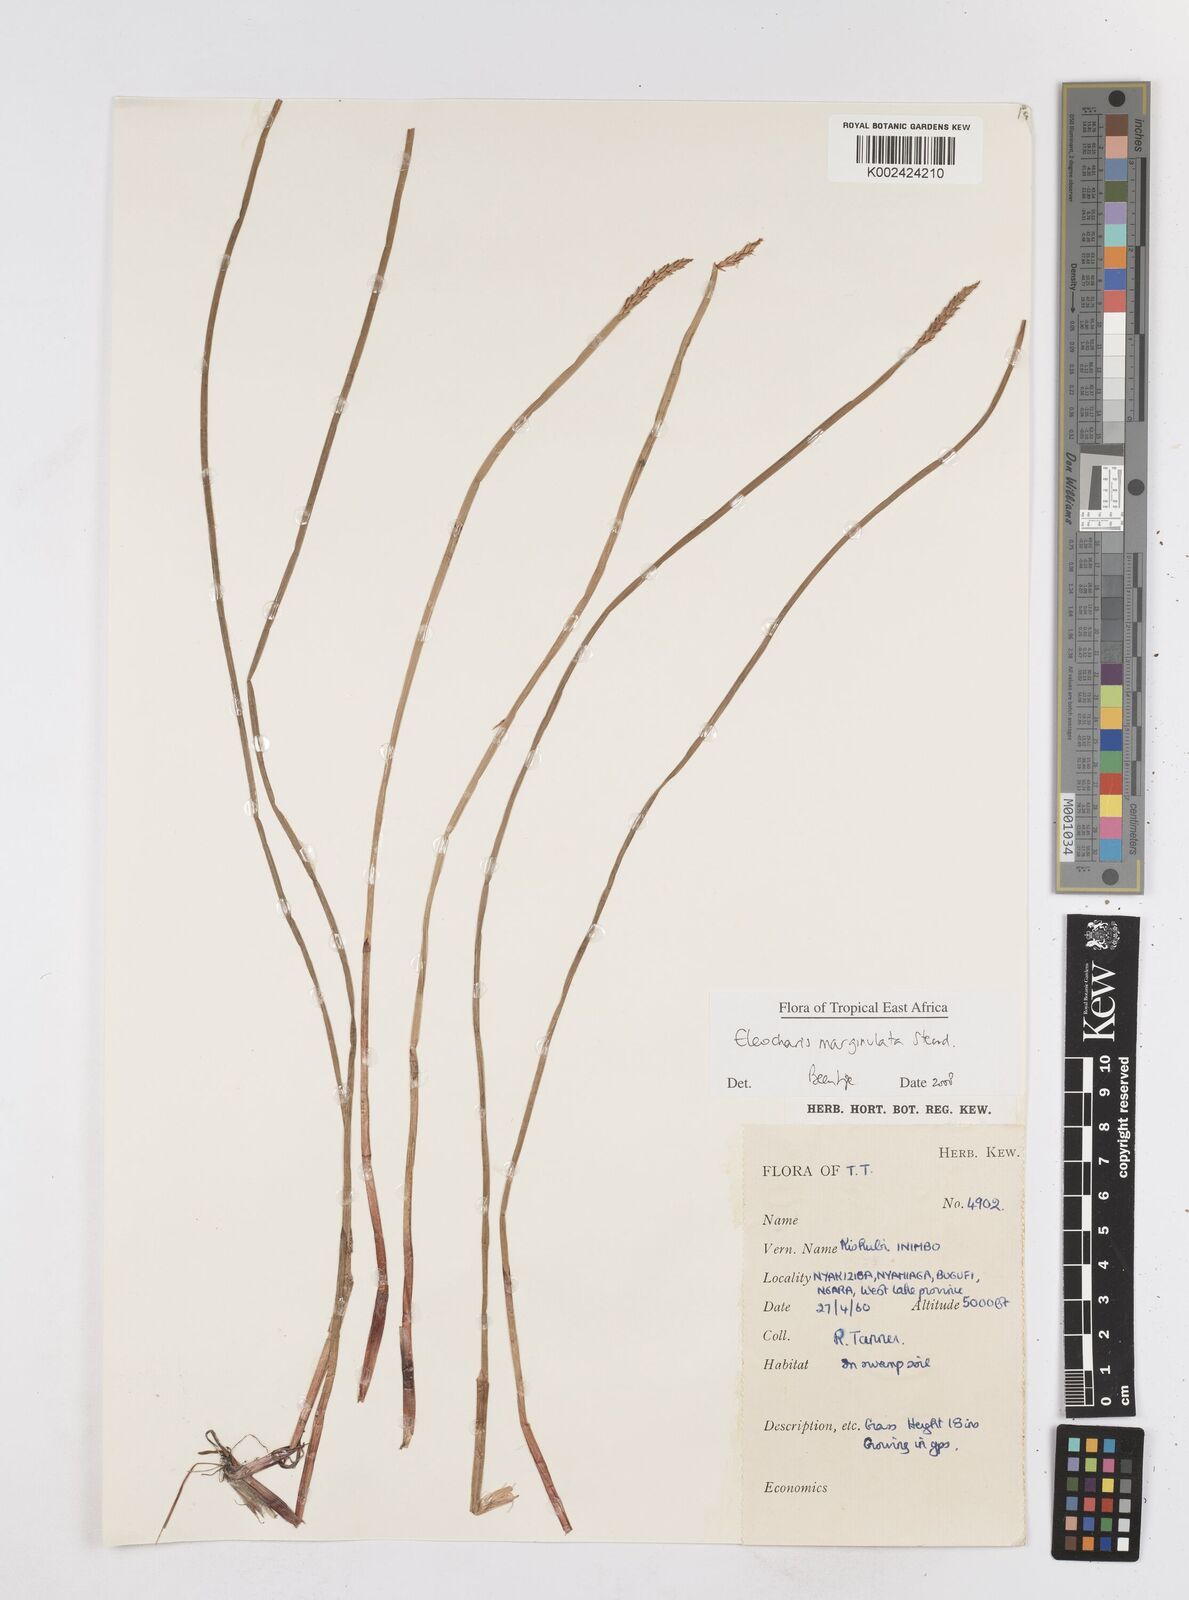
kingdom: Plantae
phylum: Tracheophyta
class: Liliopsida
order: Poales
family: Cyperaceae
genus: Eleocharis
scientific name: Eleocharis marginulata
